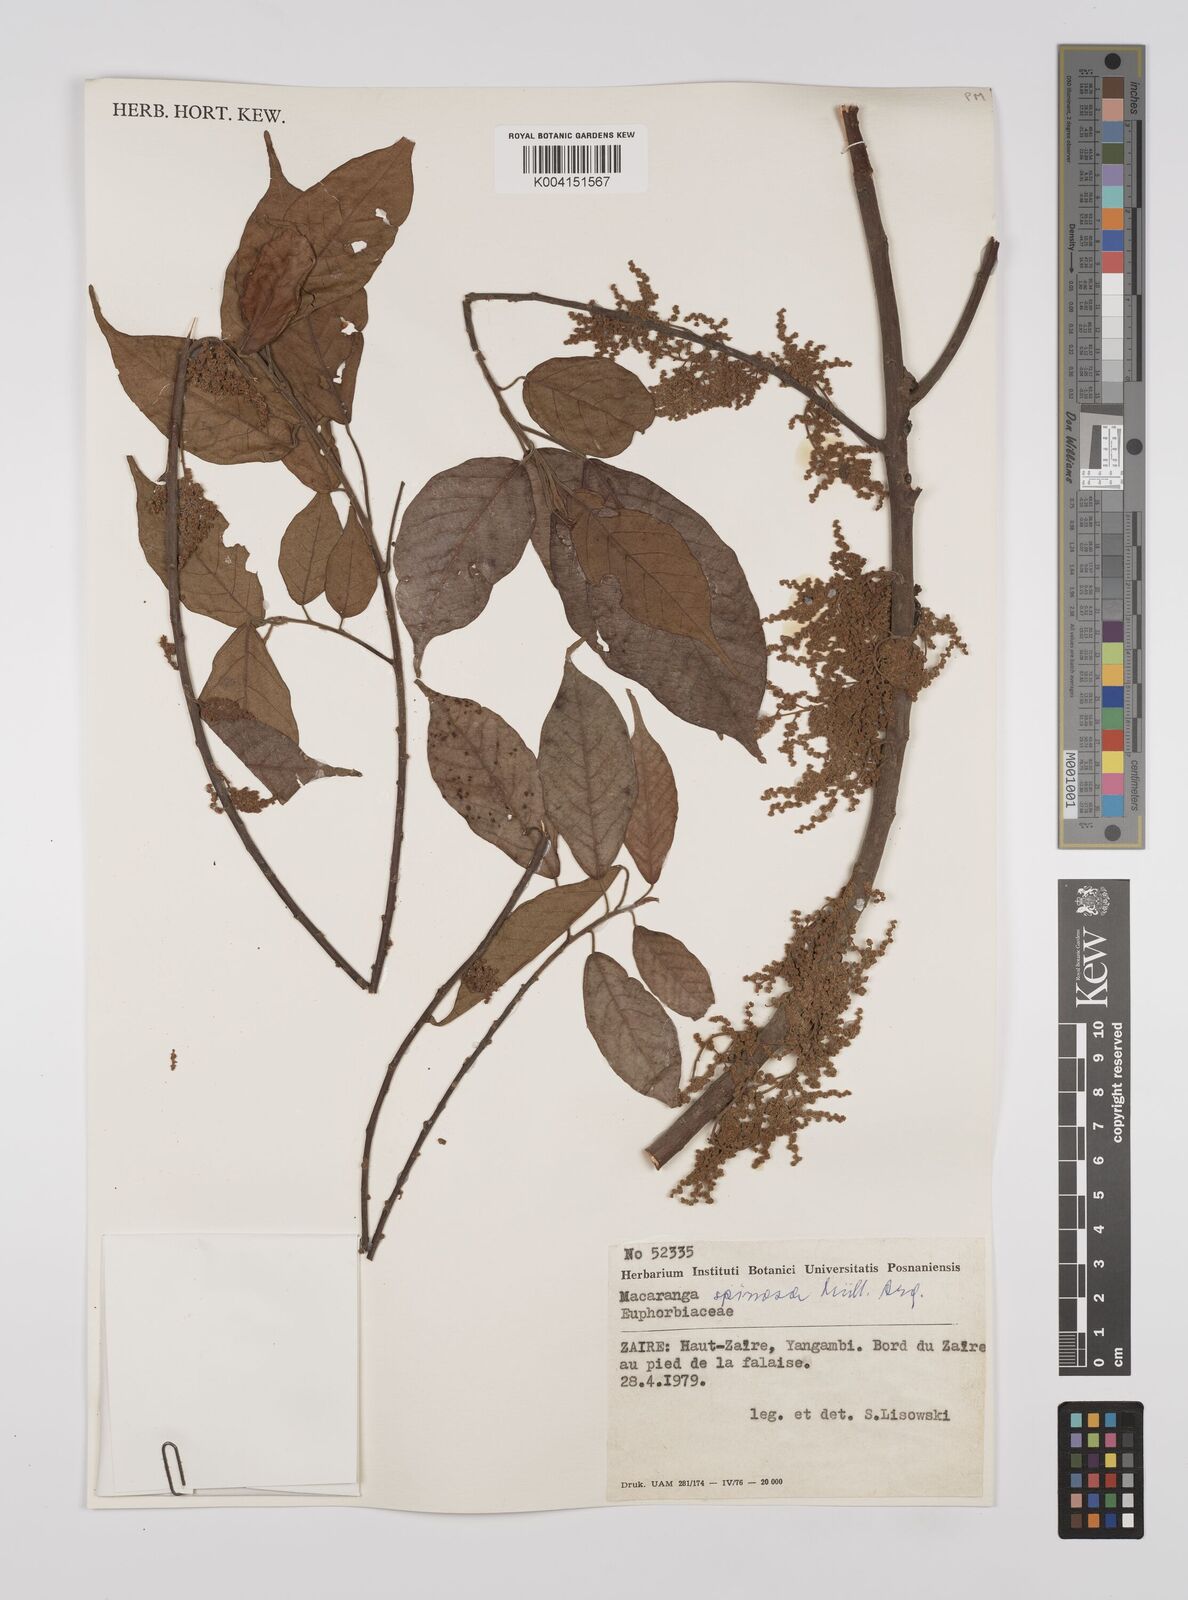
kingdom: Plantae
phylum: Tracheophyta
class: Magnoliopsida
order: Malpighiales
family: Euphorbiaceae
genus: Macaranga
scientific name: Macaranga spinosa
